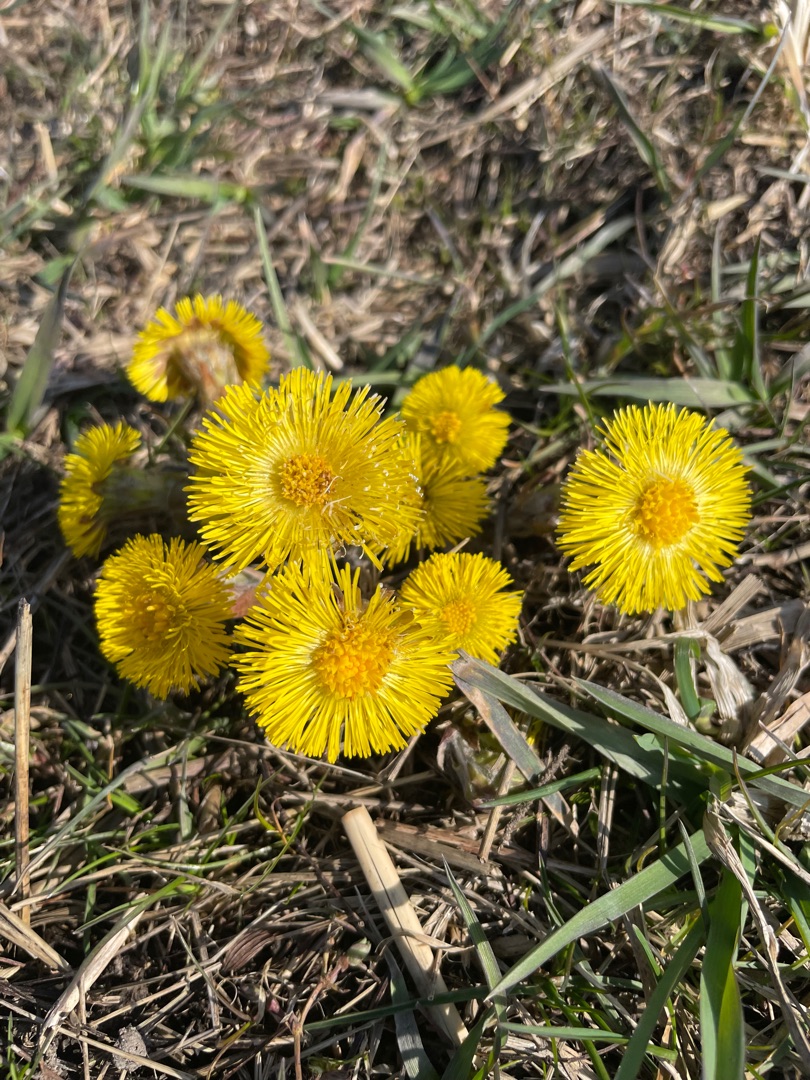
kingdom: Plantae
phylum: Tracheophyta
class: Magnoliopsida
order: Asterales
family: Asteraceae
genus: Tussilago
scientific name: Tussilago farfara
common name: Følfod
